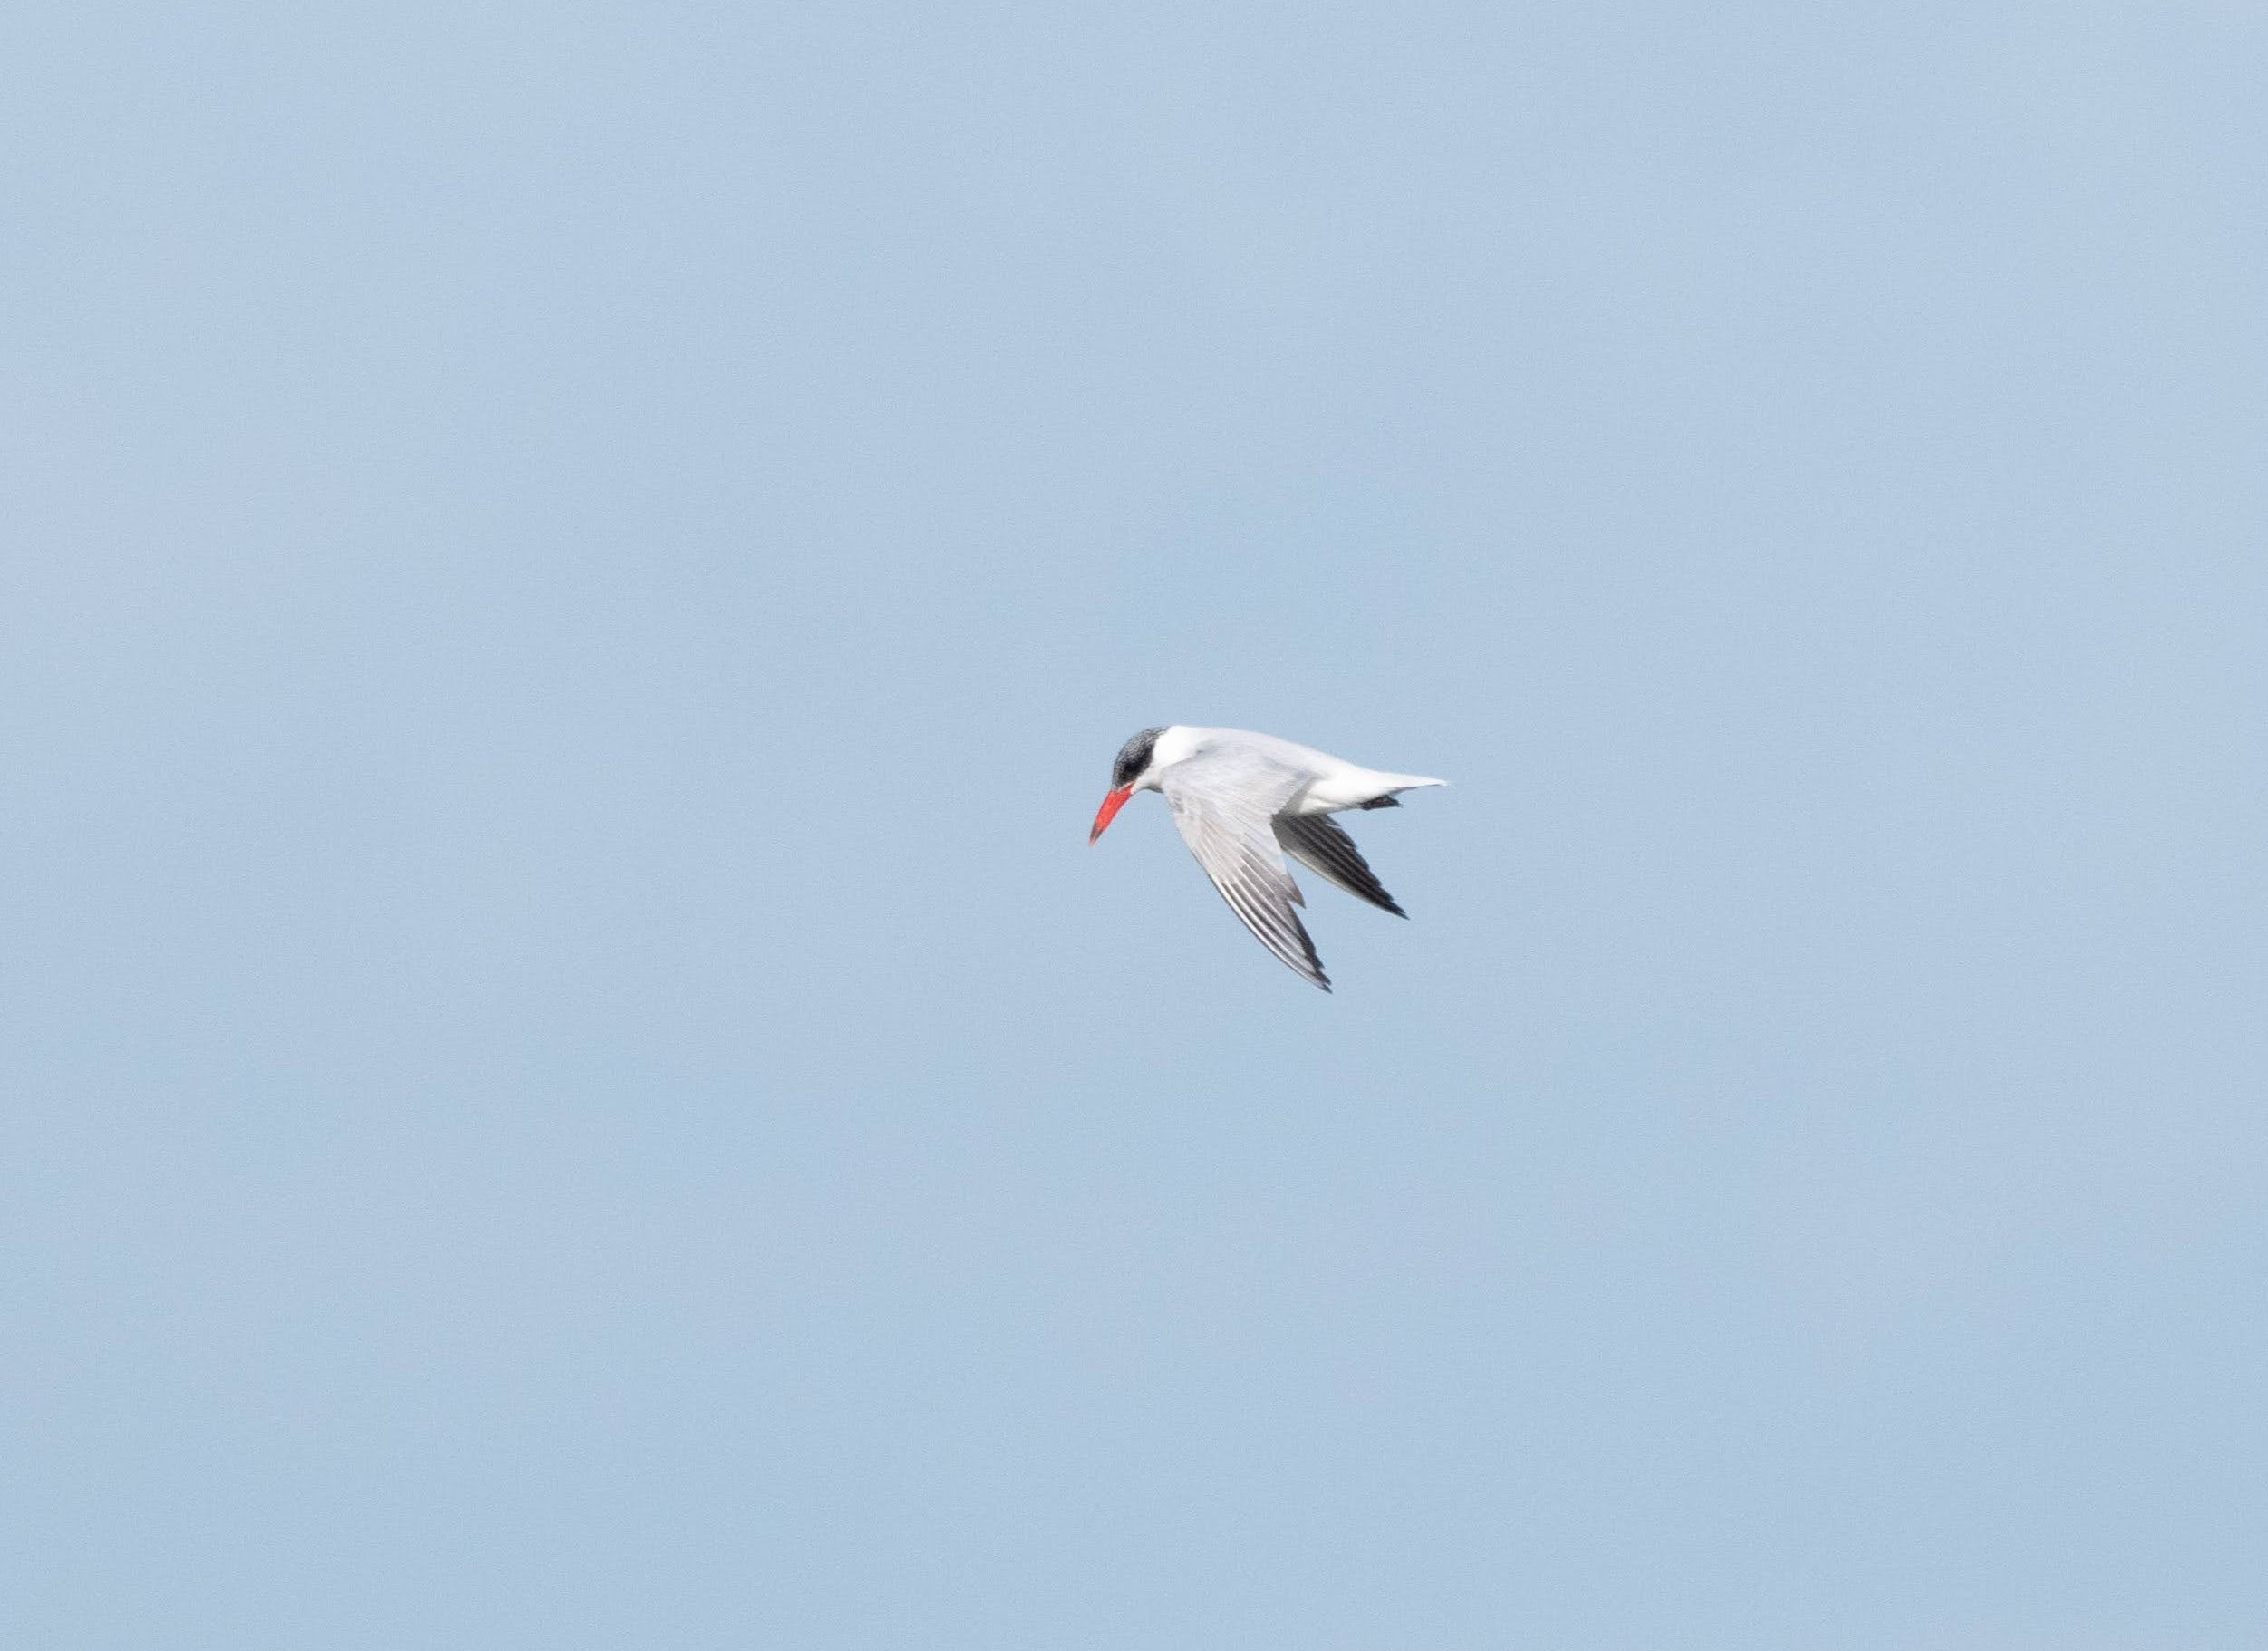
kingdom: Animalia
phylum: Chordata
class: Aves
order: Charadriiformes
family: Laridae
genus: Hydroprogne
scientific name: Hydroprogne caspia
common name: Rovterne
